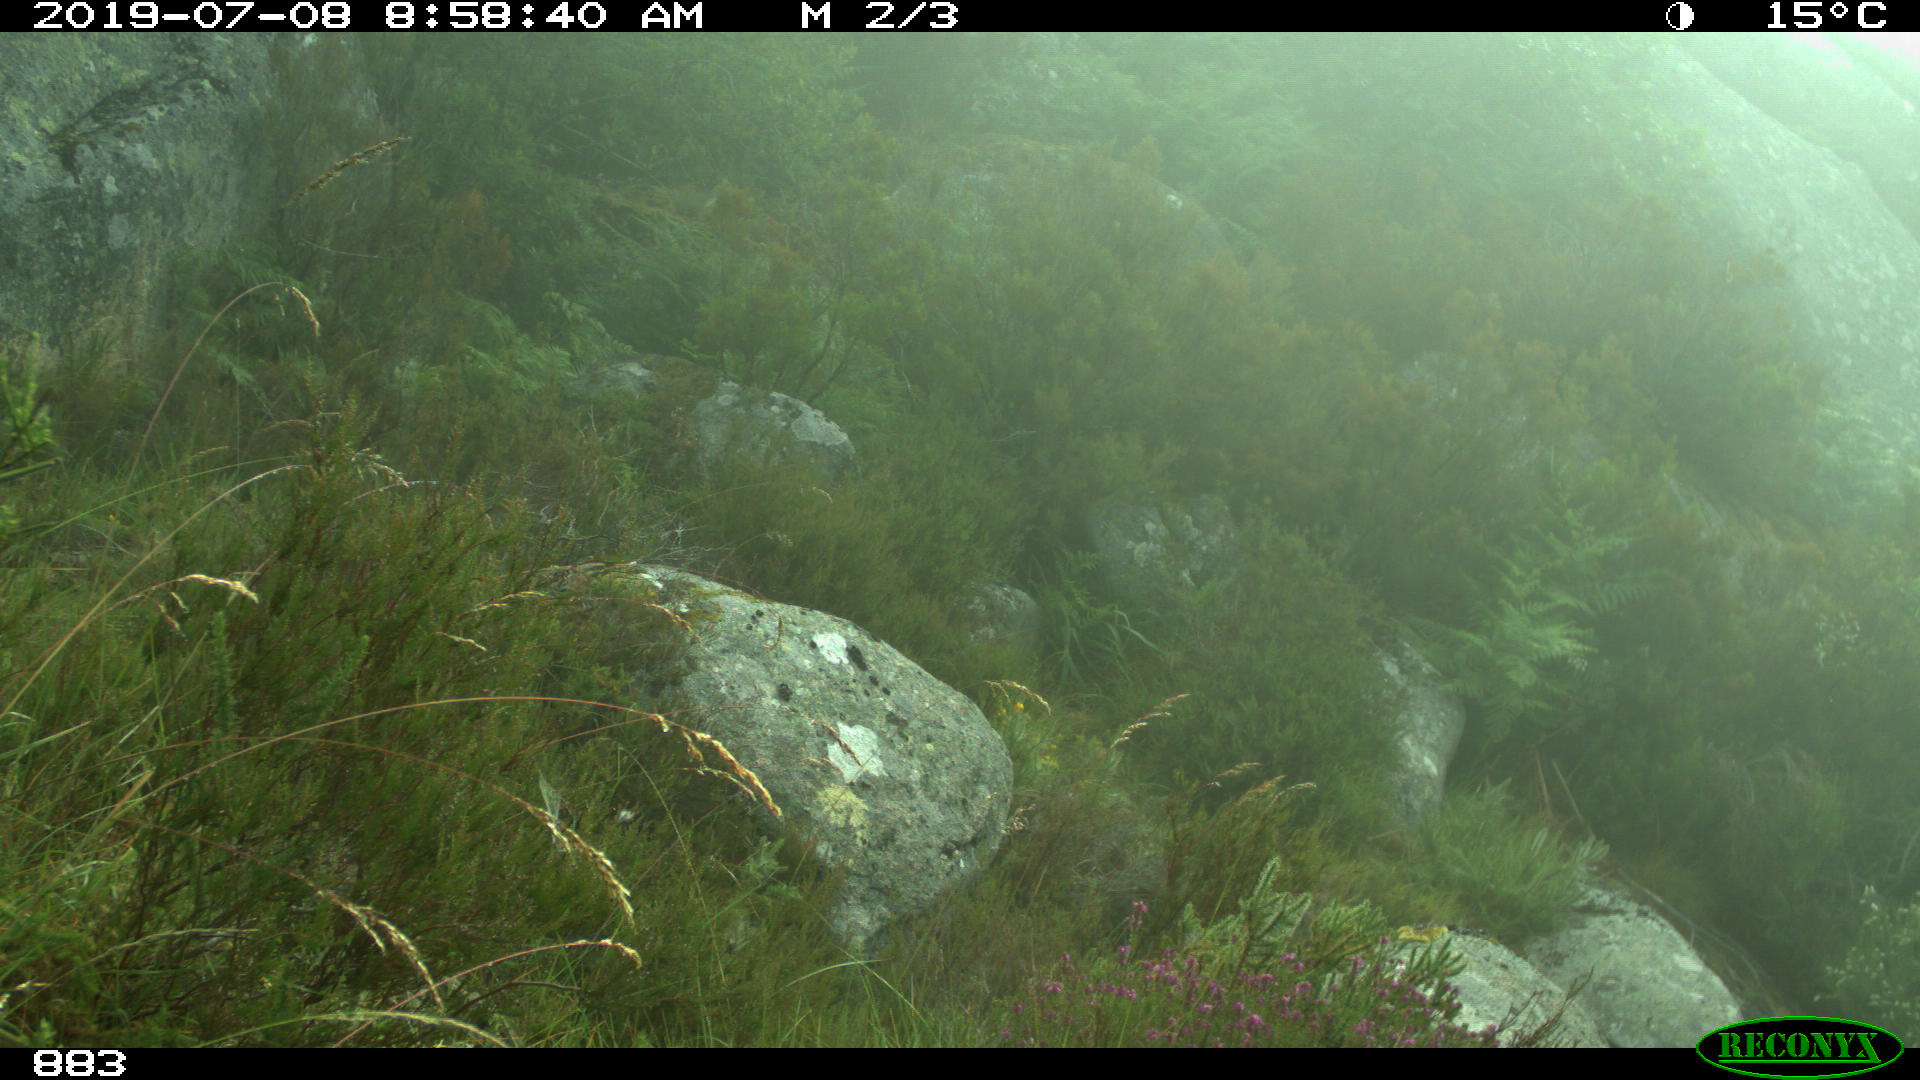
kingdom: Animalia
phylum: Chordata
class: Mammalia
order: Artiodactyla
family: Suidae
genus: Sus
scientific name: Sus scrofa
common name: Wild boar
